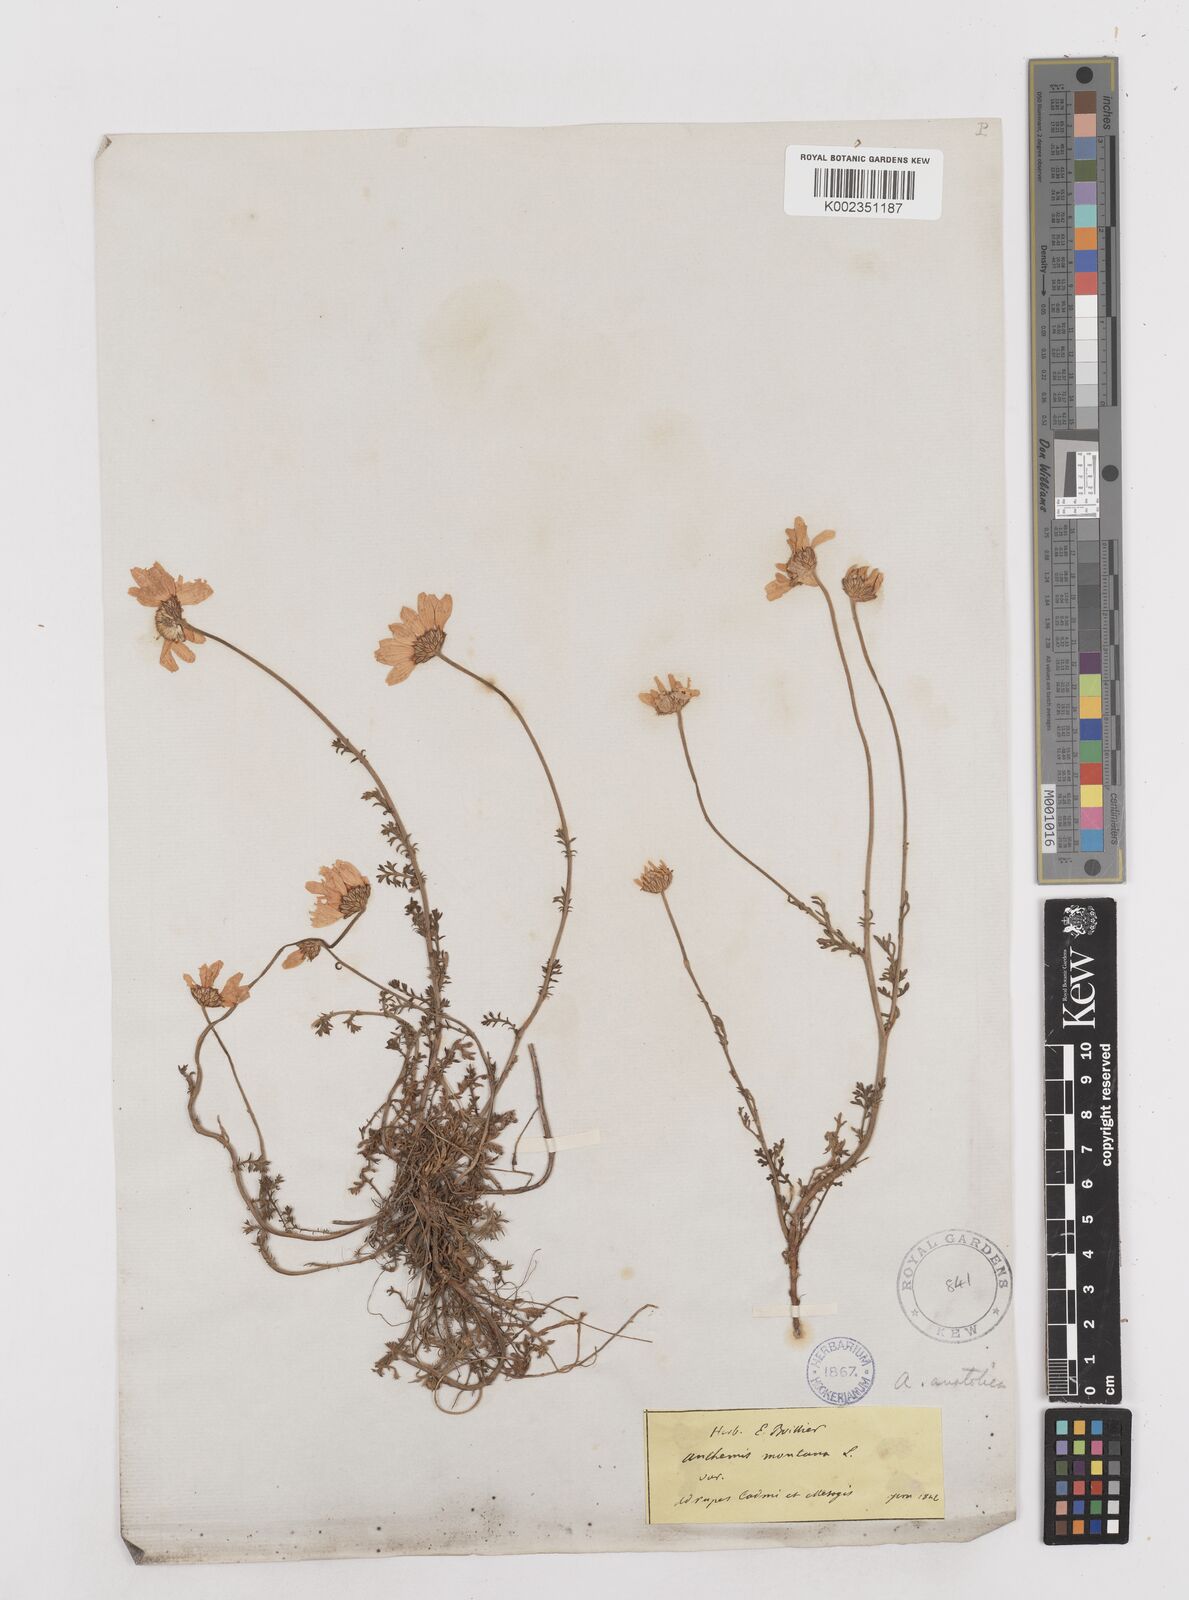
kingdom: Plantae
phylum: Tracheophyta
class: Magnoliopsida
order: Asterales
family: Asteraceae
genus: Anthemis
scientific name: Anthemis cretica
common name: Mountain dog-daisy
